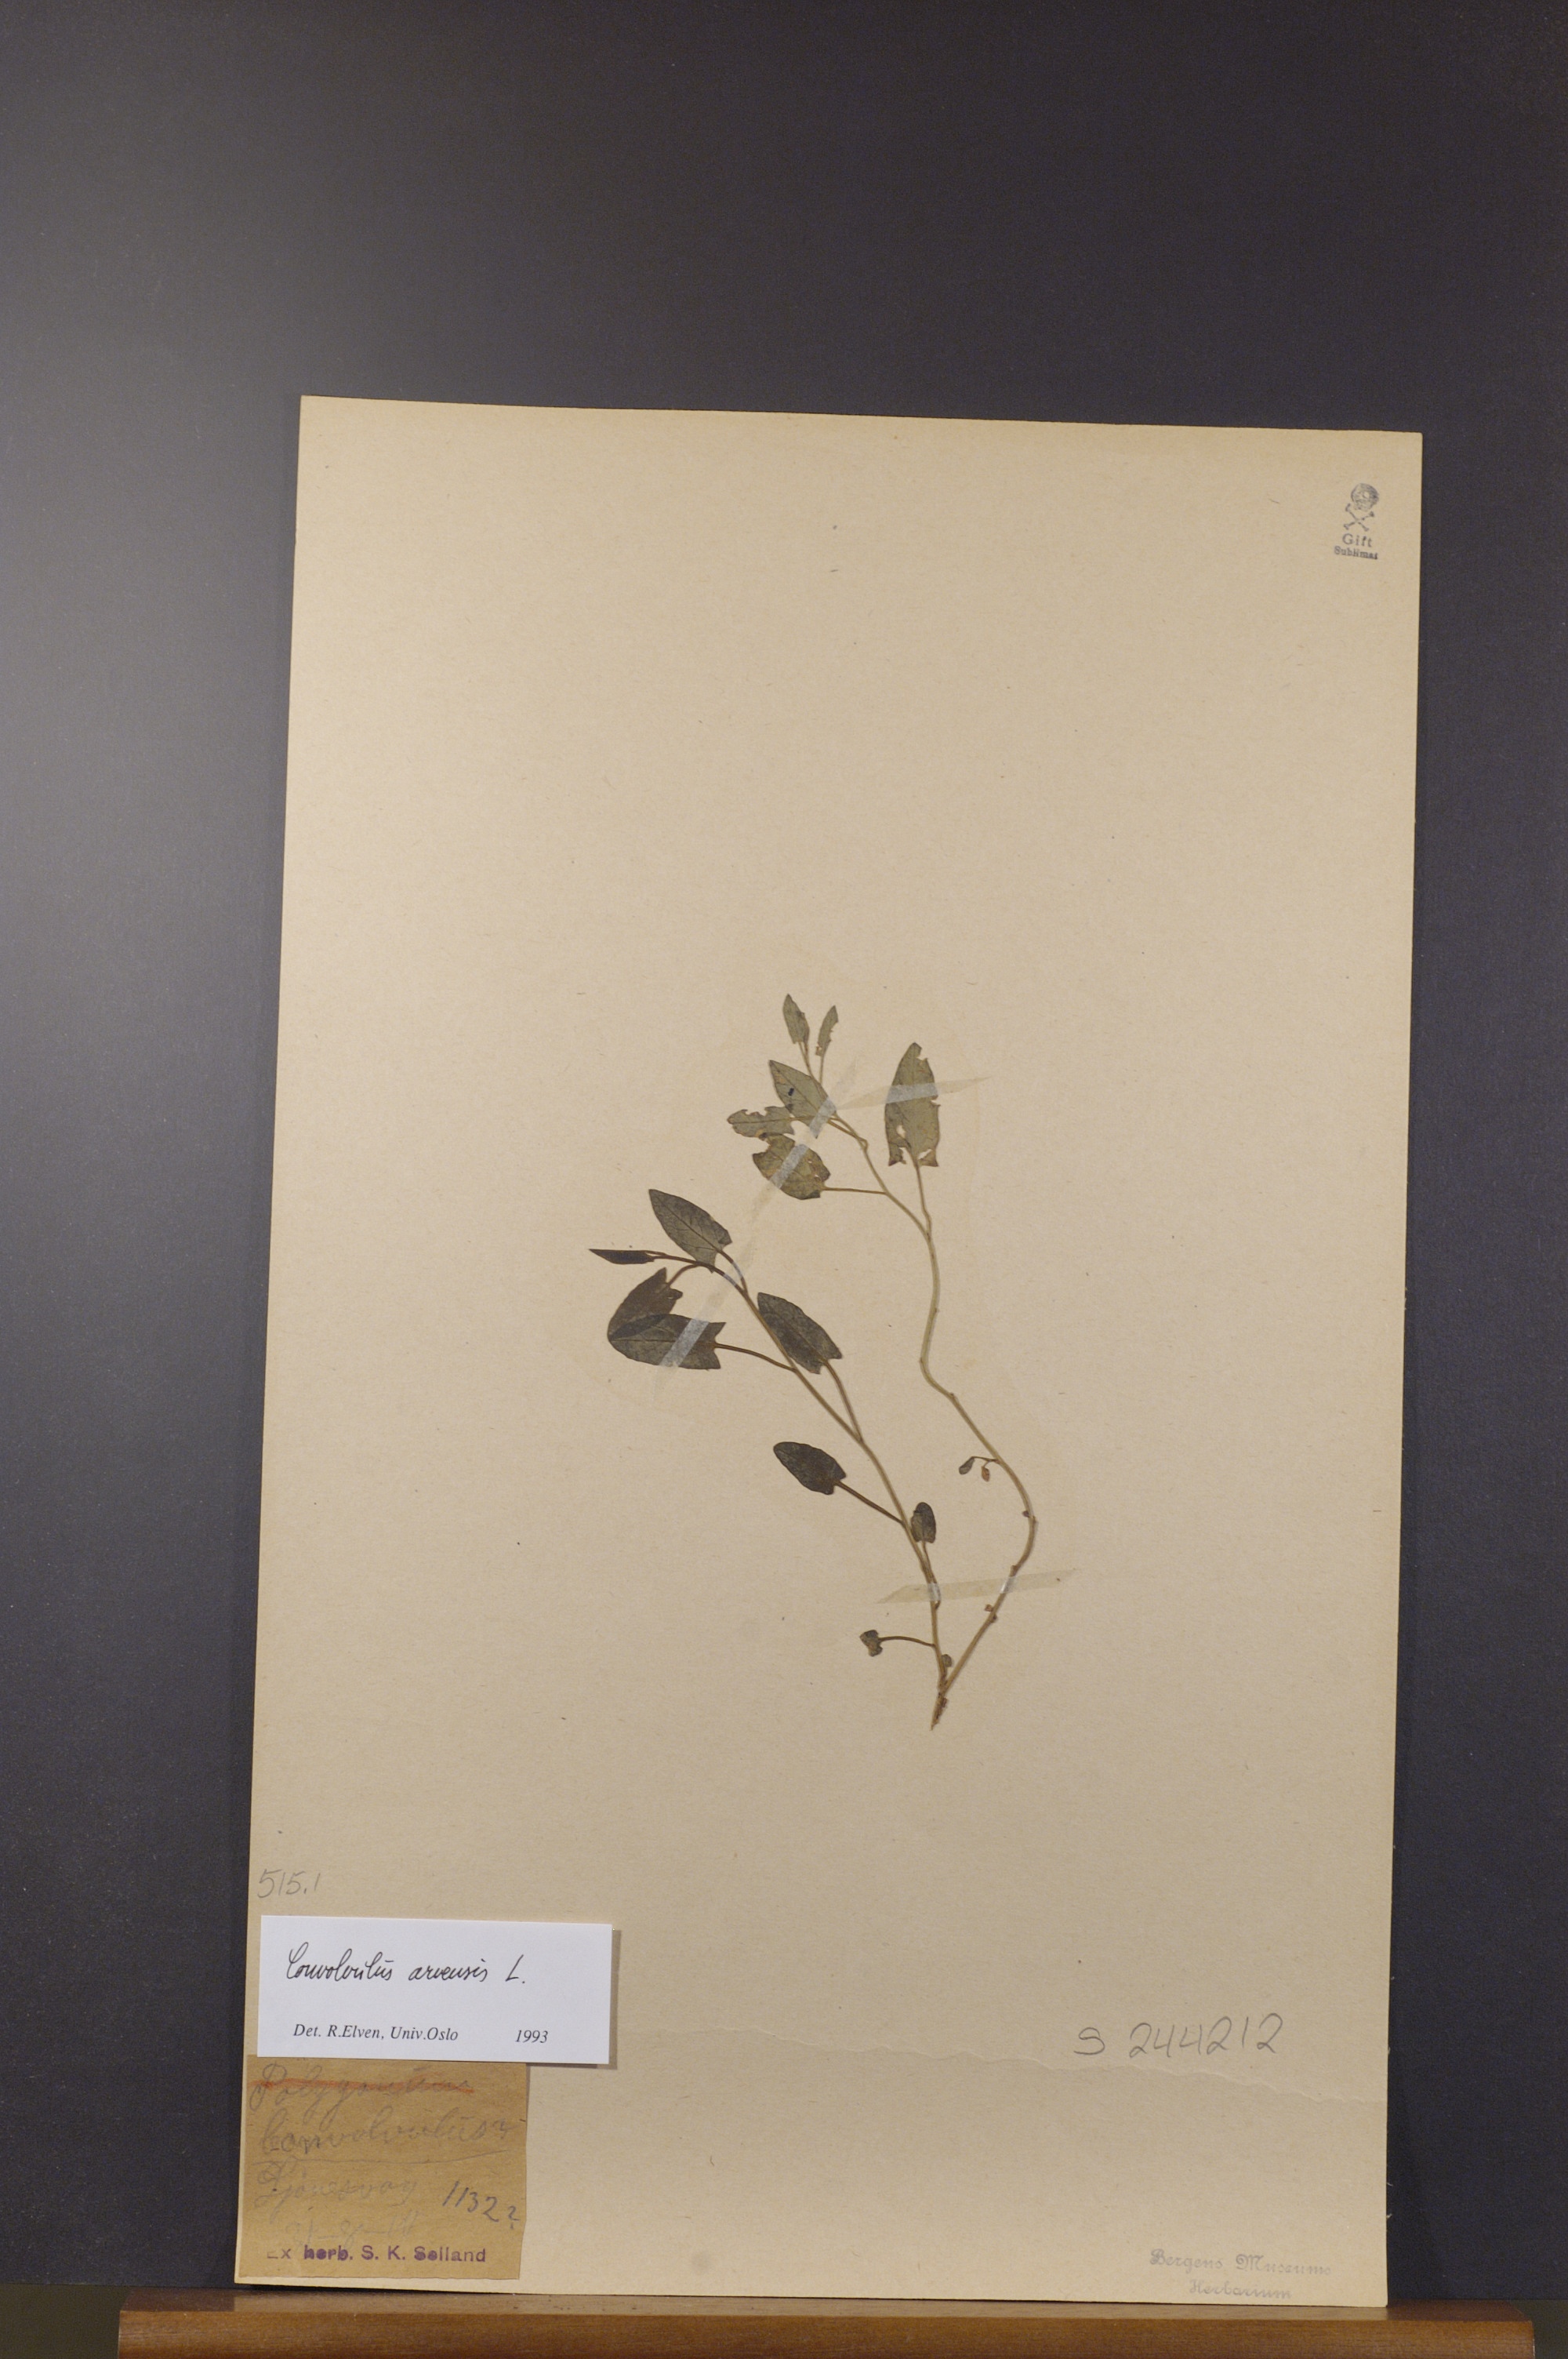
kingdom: Plantae
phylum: Tracheophyta
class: Magnoliopsida
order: Solanales
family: Convolvulaceae
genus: Convolvulus
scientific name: Convolvulus arvensis
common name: Field bindweed
